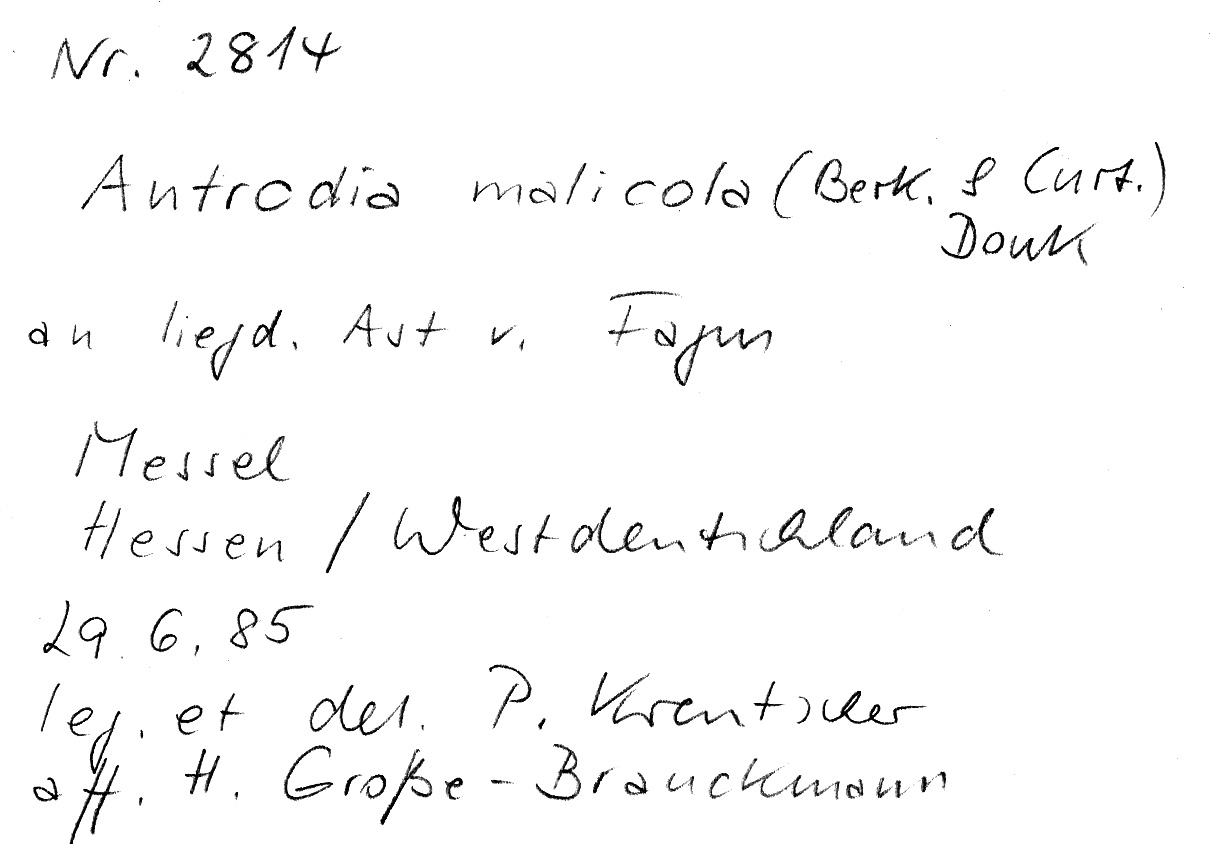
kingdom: Fungi
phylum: Basidiomycota
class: Agaricomycetes
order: Polyporales
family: Fomitopsidaceae
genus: Brunneoporus
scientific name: Brunneoporus malicola
